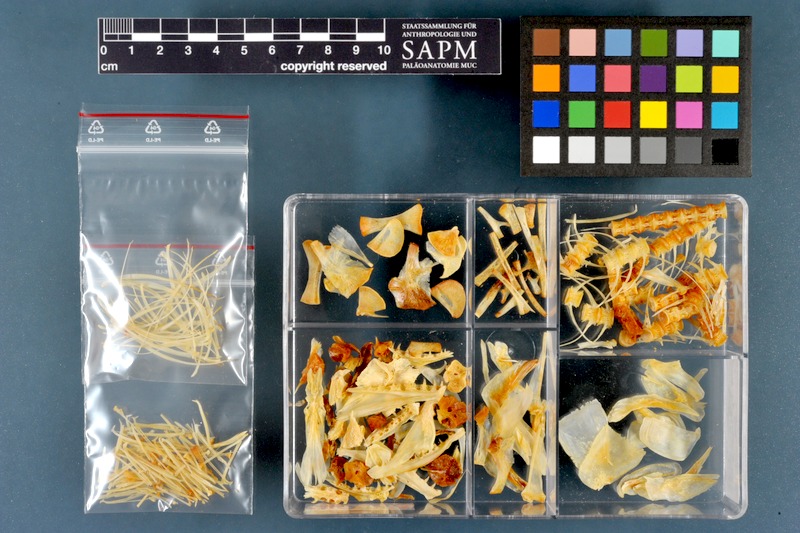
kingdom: Animalia
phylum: Chordata
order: Salmoniformes
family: Salmonidae
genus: Salmo
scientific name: Salmo trutta
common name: Brown trout
